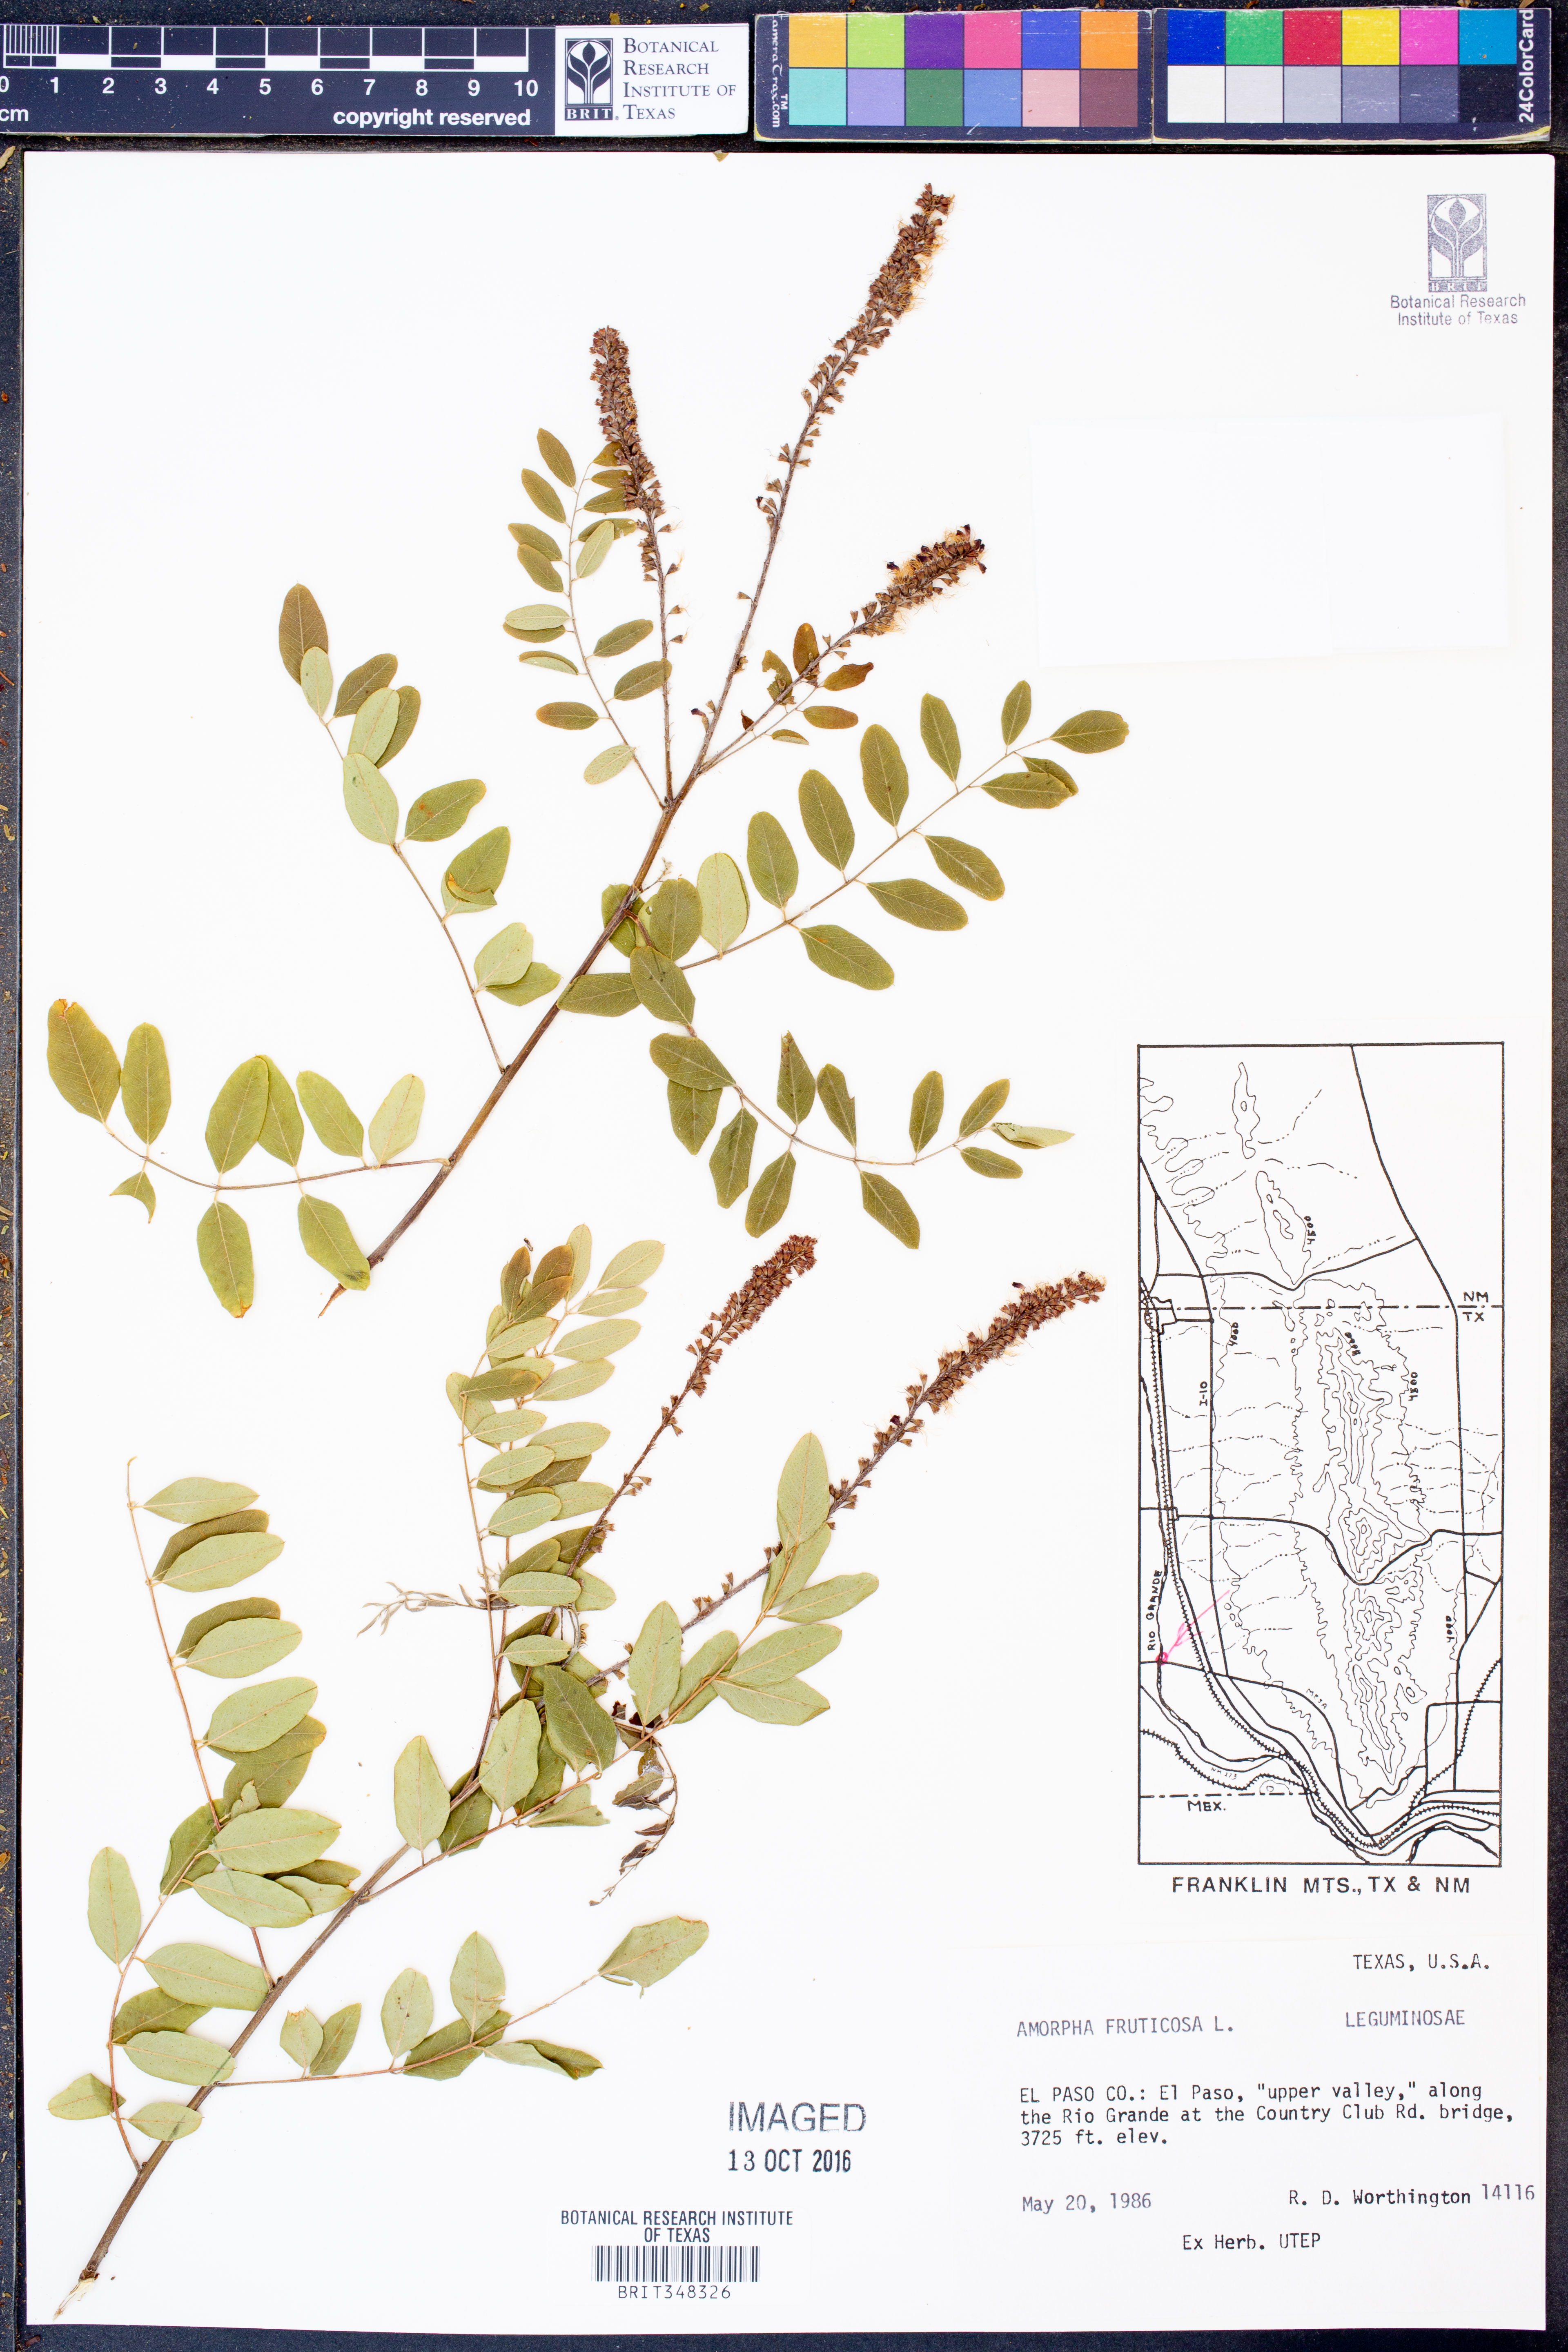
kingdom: Plantae
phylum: Tracheophyta
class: Magnoliopsida
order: Fabales
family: Fabaceae
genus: Amorpha
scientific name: Amorpha fruticosa
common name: False indigo
